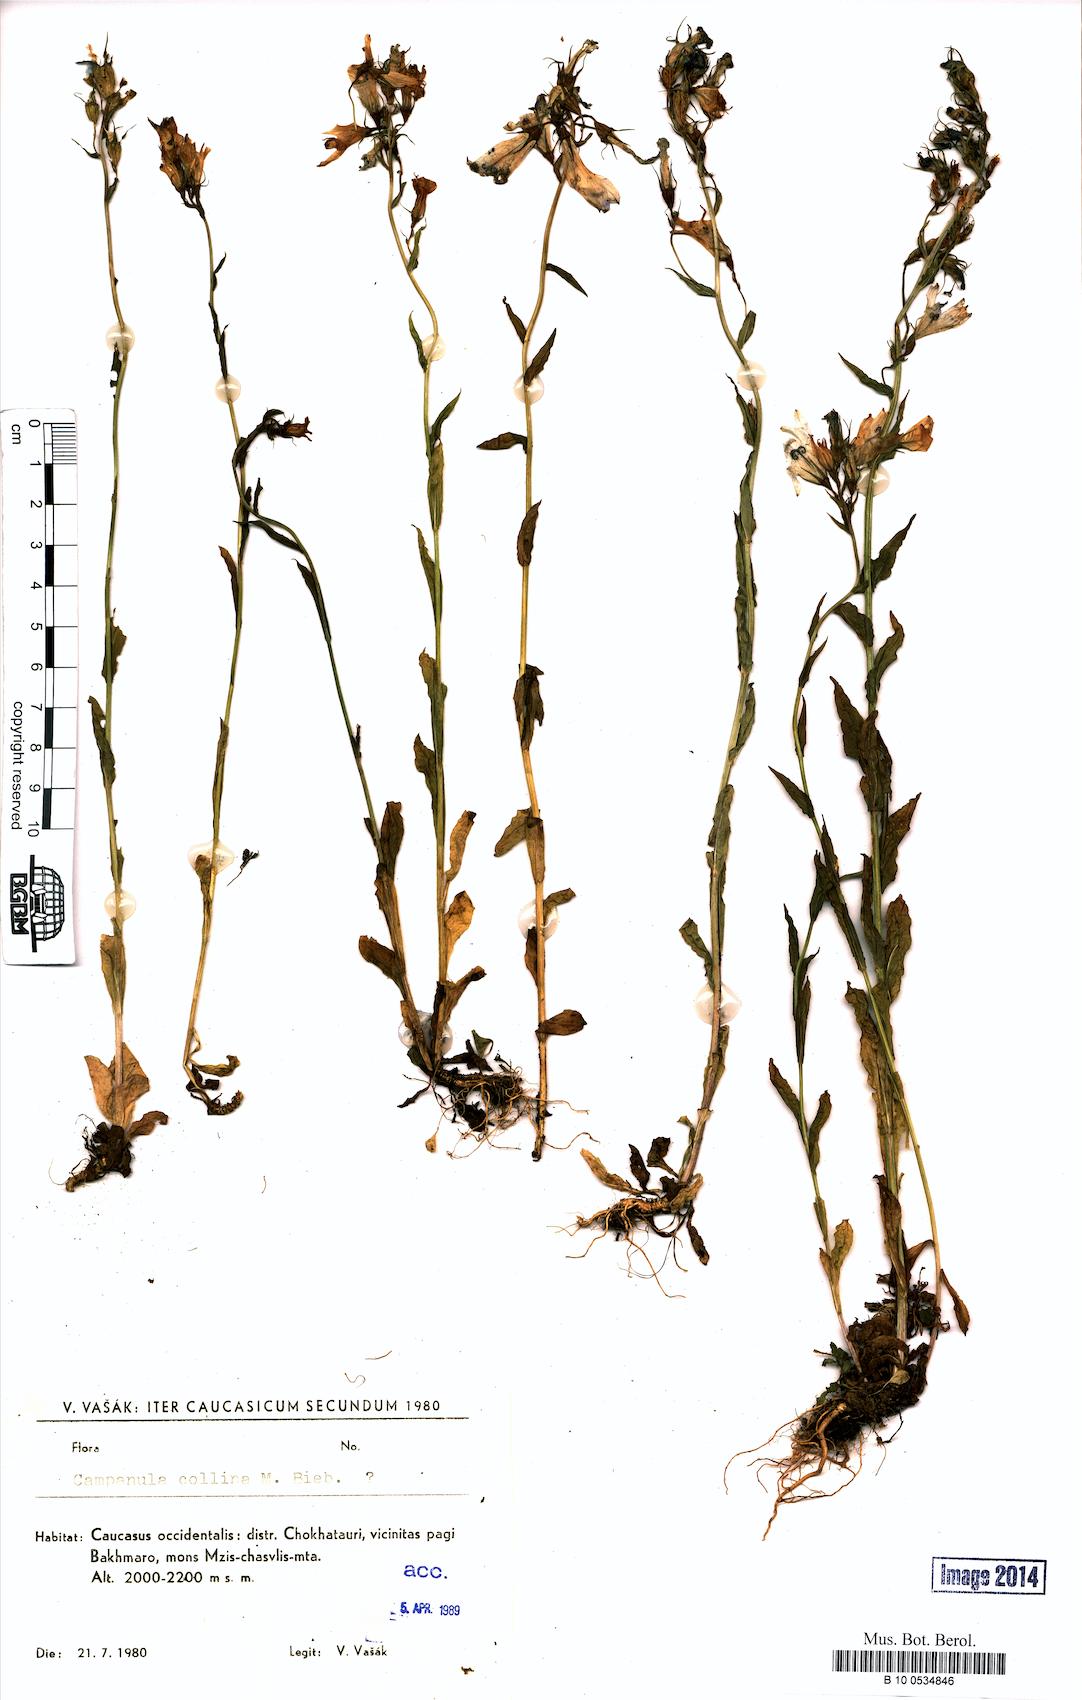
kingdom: Plantae
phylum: Tracheophyta
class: Magnoliopsida
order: Asterales
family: Campanulaceae
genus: Campanula
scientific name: Campanula collina
